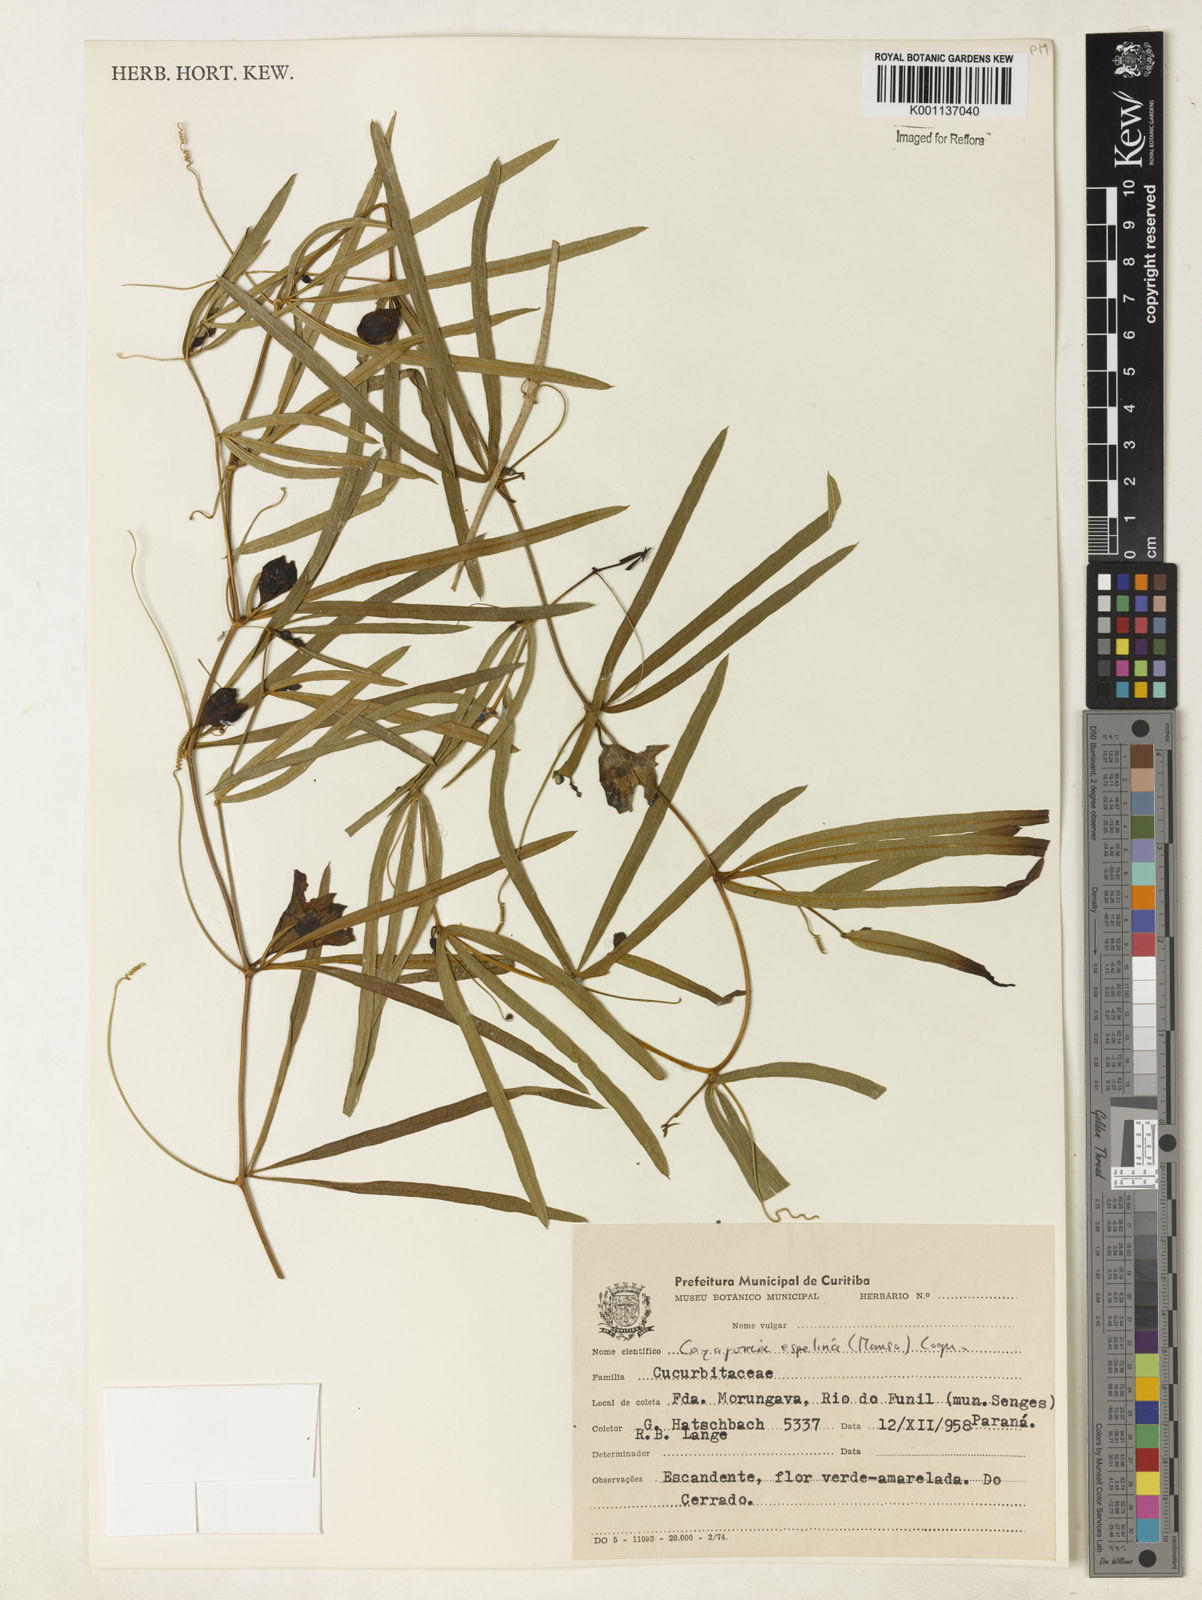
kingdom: Plantae
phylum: Tracheophyta
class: Magnoliopsida
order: Cucurbitales
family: Cucurbitaceae
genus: Cayaponia
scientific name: Cayaponia espelina
